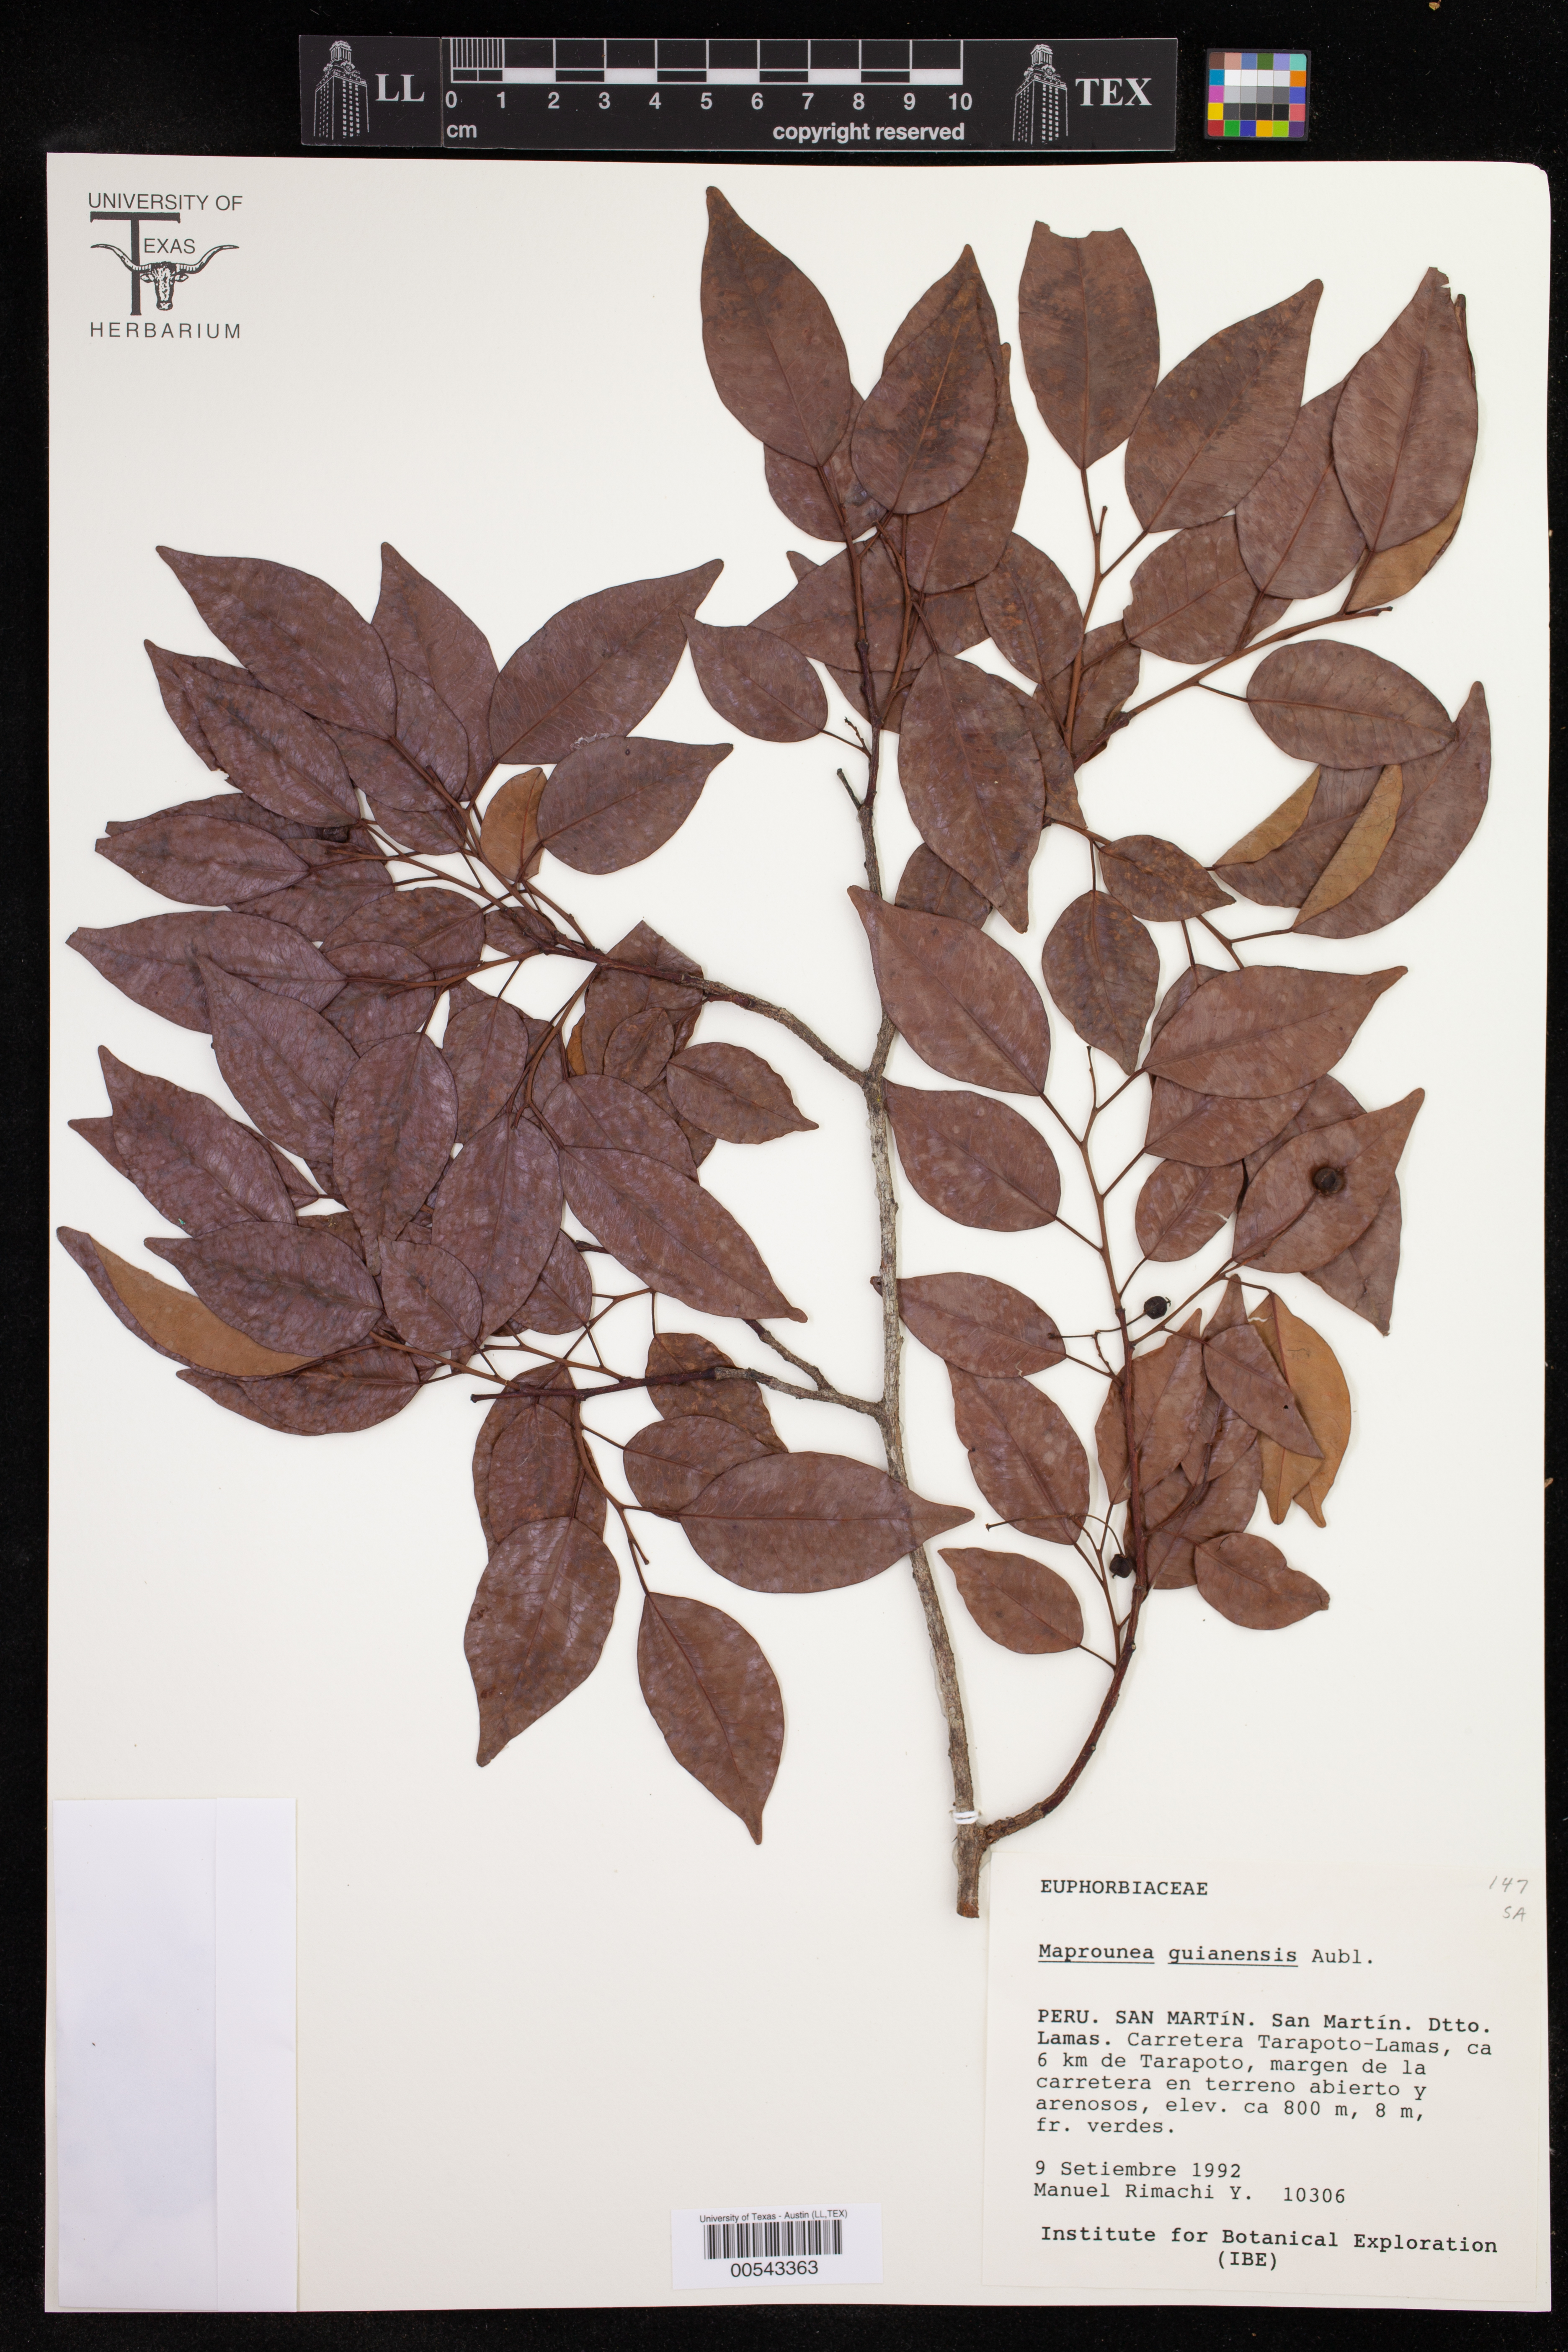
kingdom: Plantae
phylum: Tracheophyta
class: Magnoliopsida
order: Malpighiales
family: Euphorbiaceae
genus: Maprounea
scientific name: Maprounea guianensis
